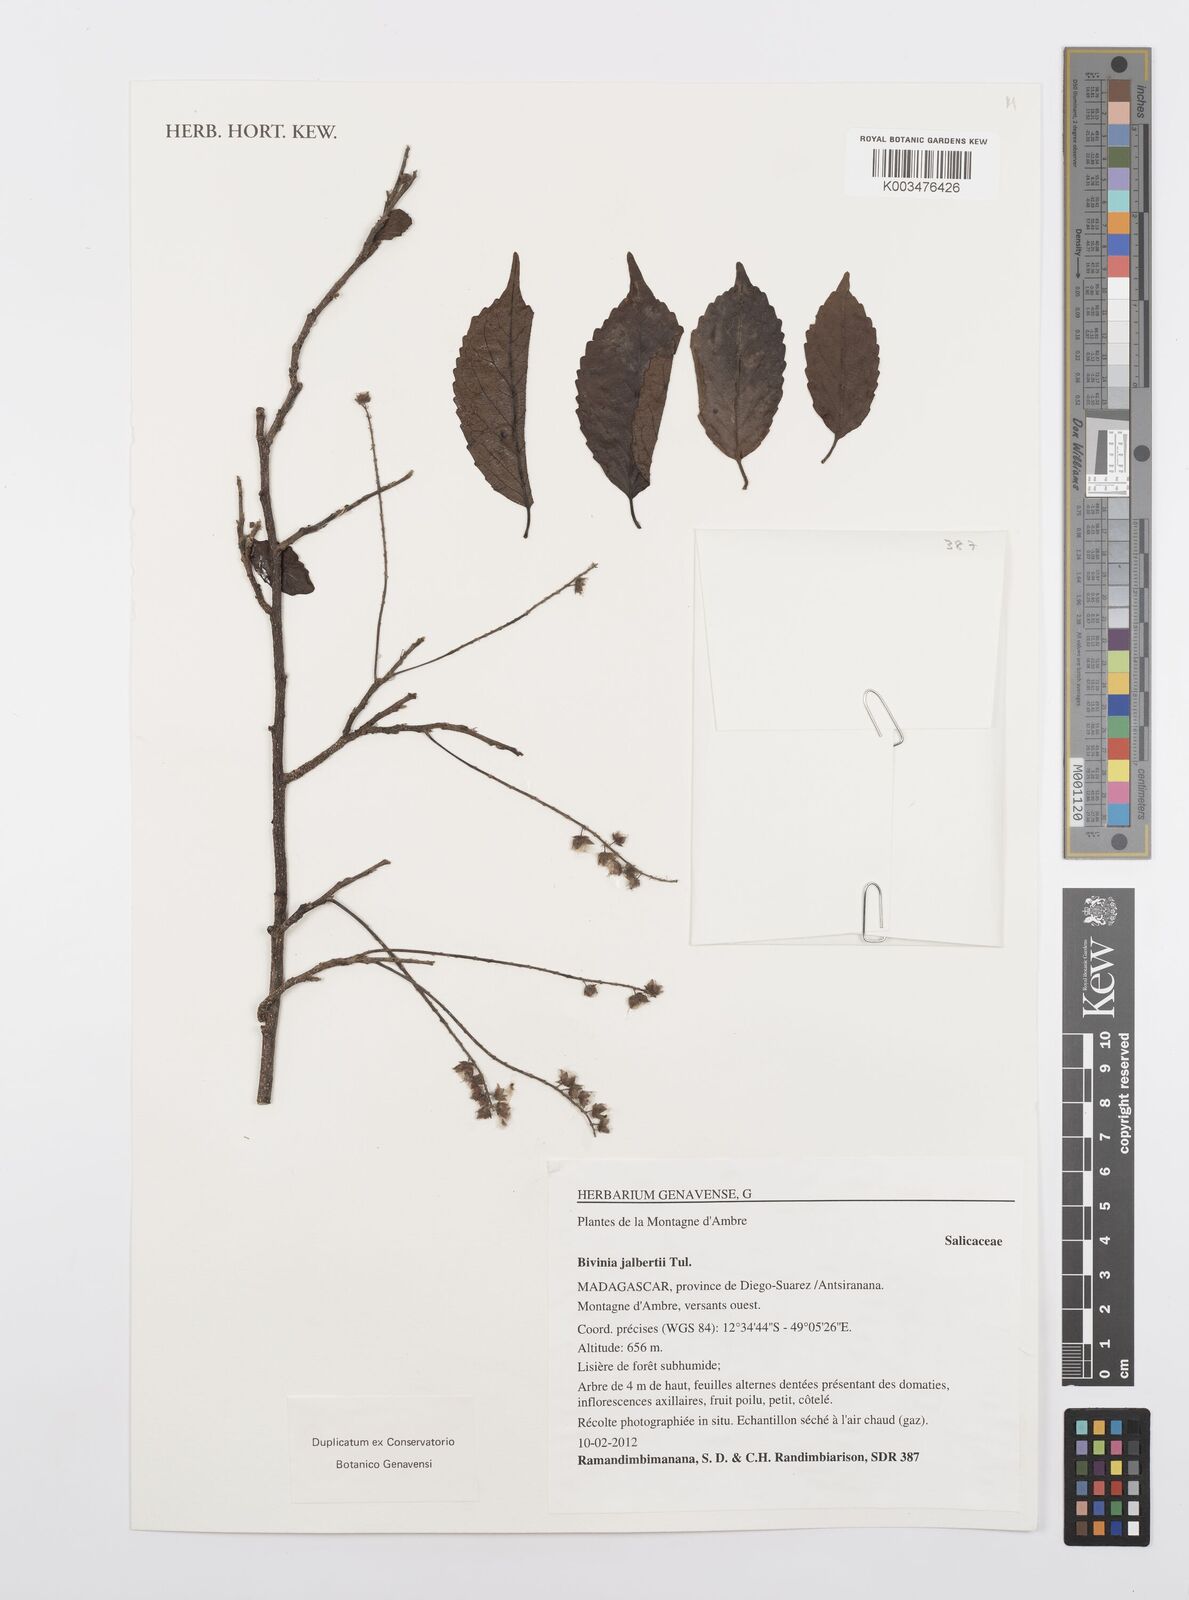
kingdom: Plantae
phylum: Tracheophyta
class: Magnoliopsida
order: Malpighiales
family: Salicaceae
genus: Bivinia
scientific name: Bivinia jalbertii
